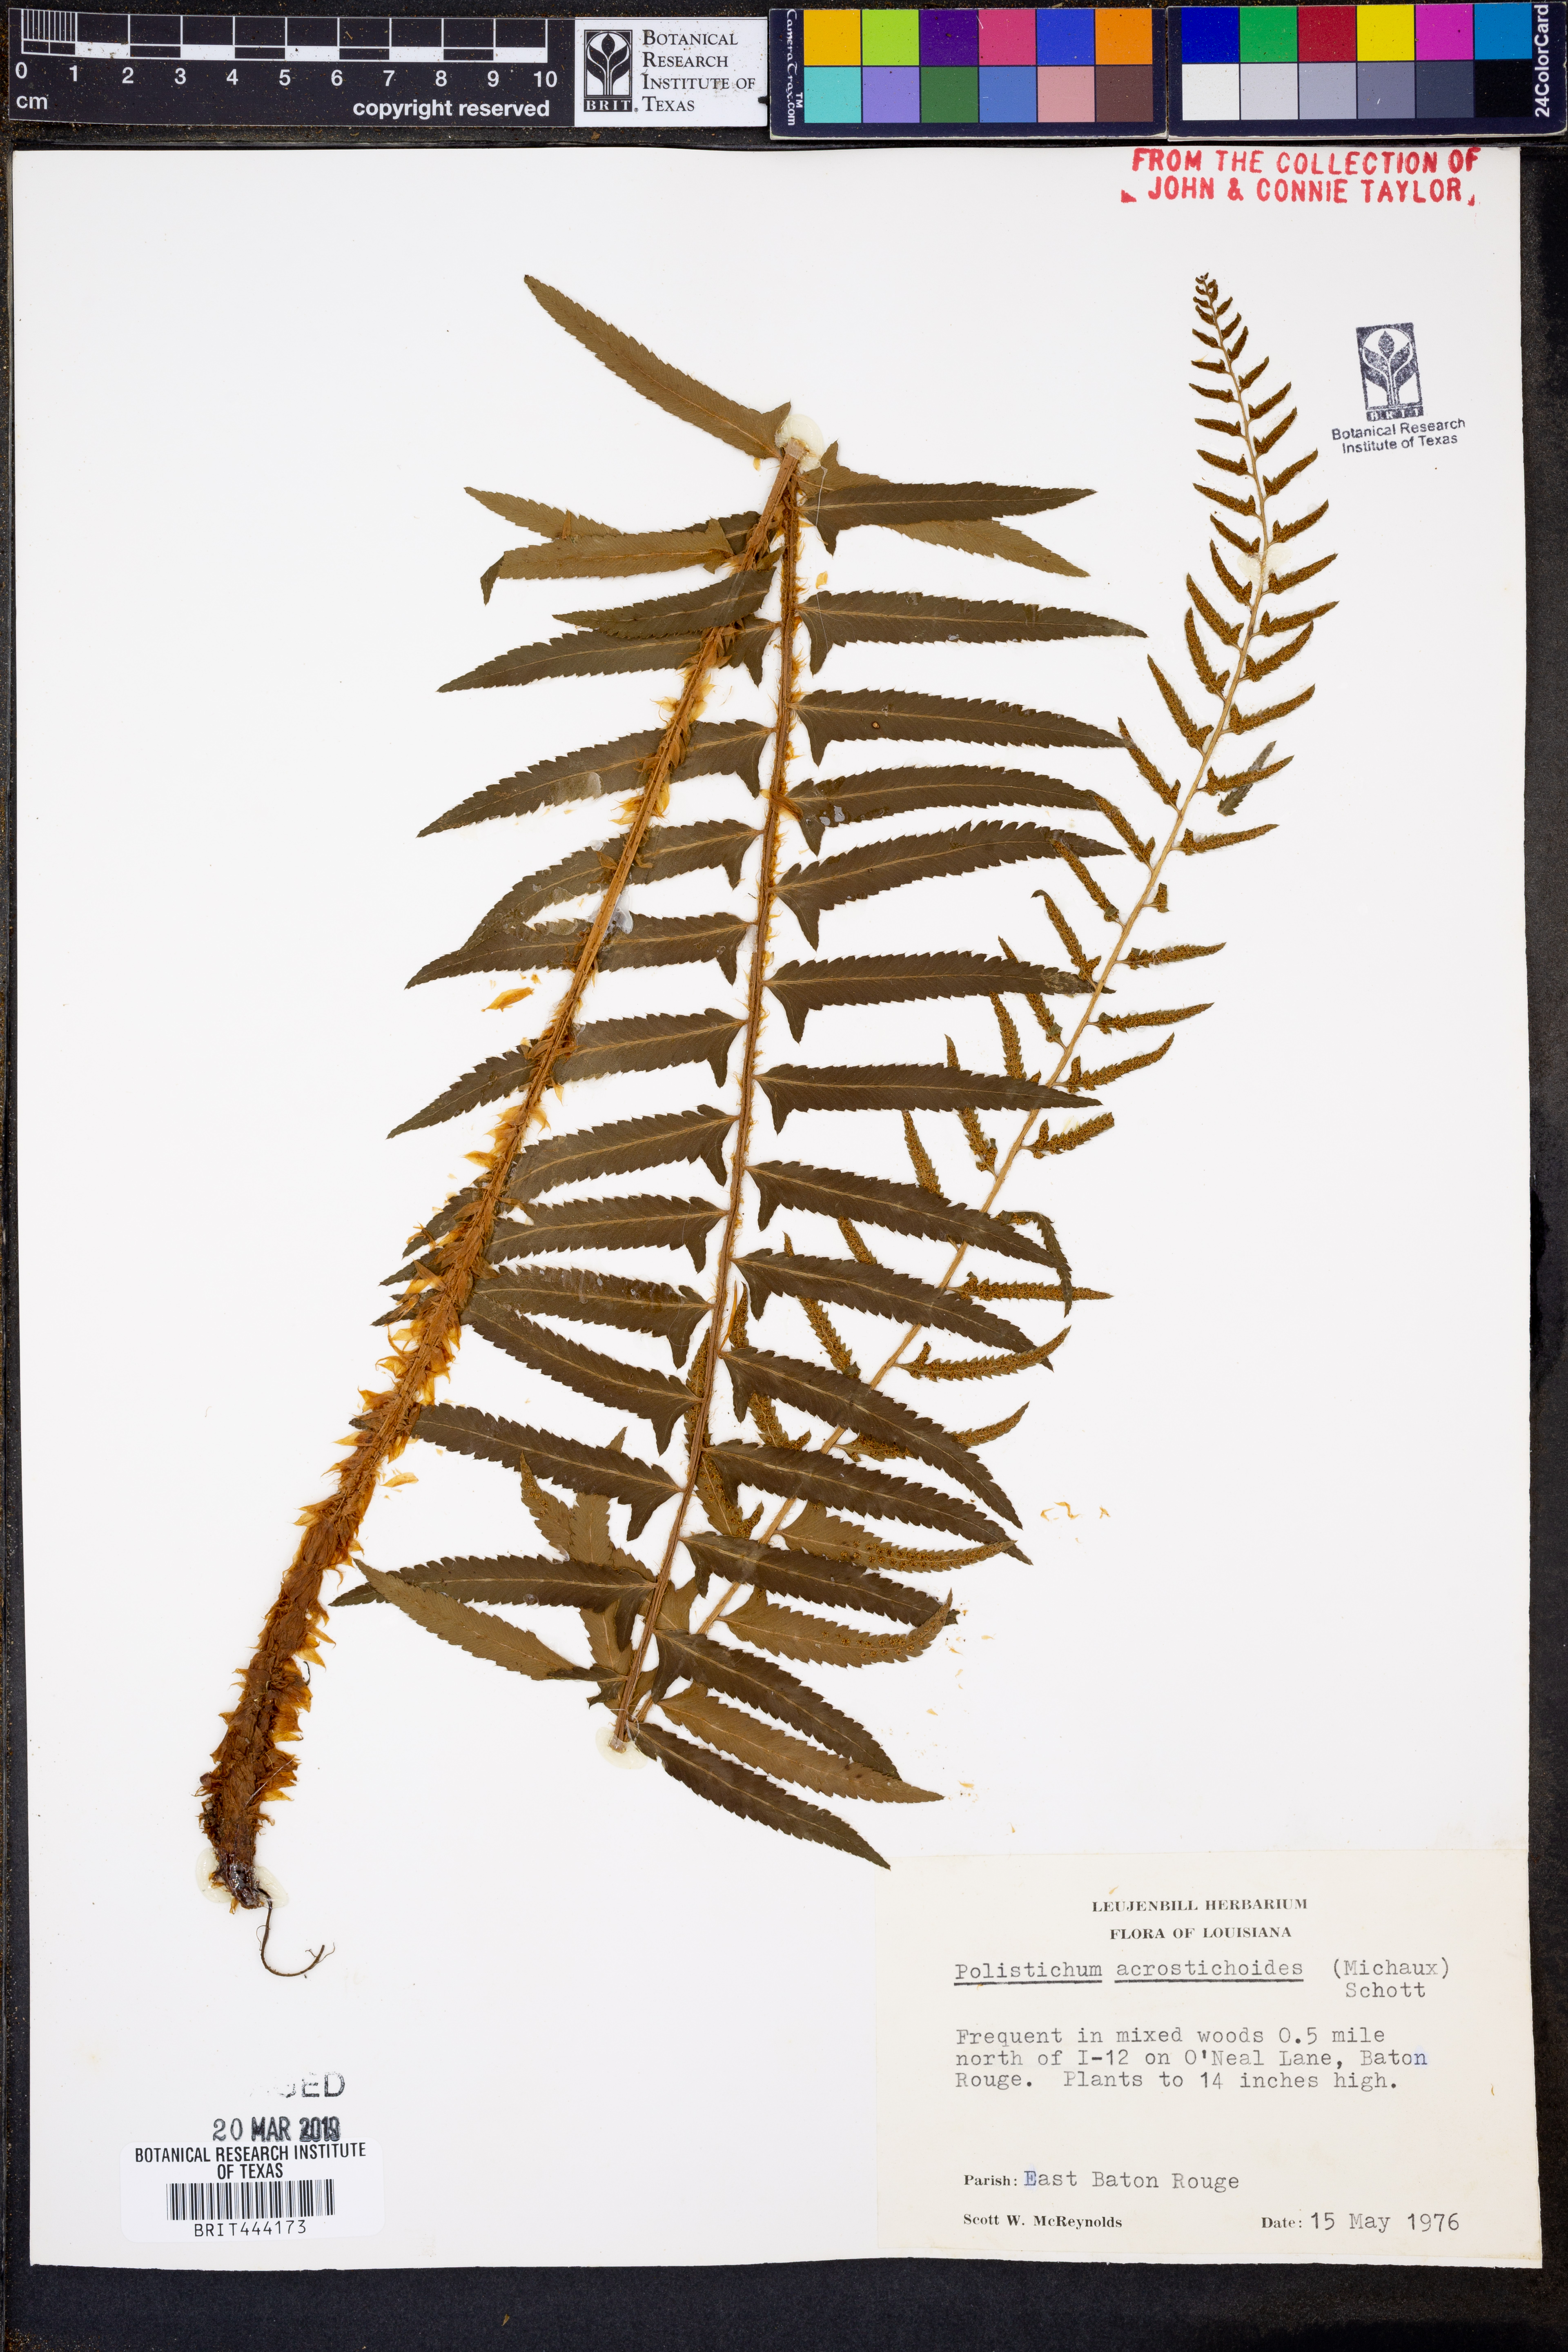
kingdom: Plantae
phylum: Tracheophyta
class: Polypodiopsida
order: Polypodiales
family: Dryopteridaceae
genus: Polystichum
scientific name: Polystichum acrostichoides
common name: Christmas fern
